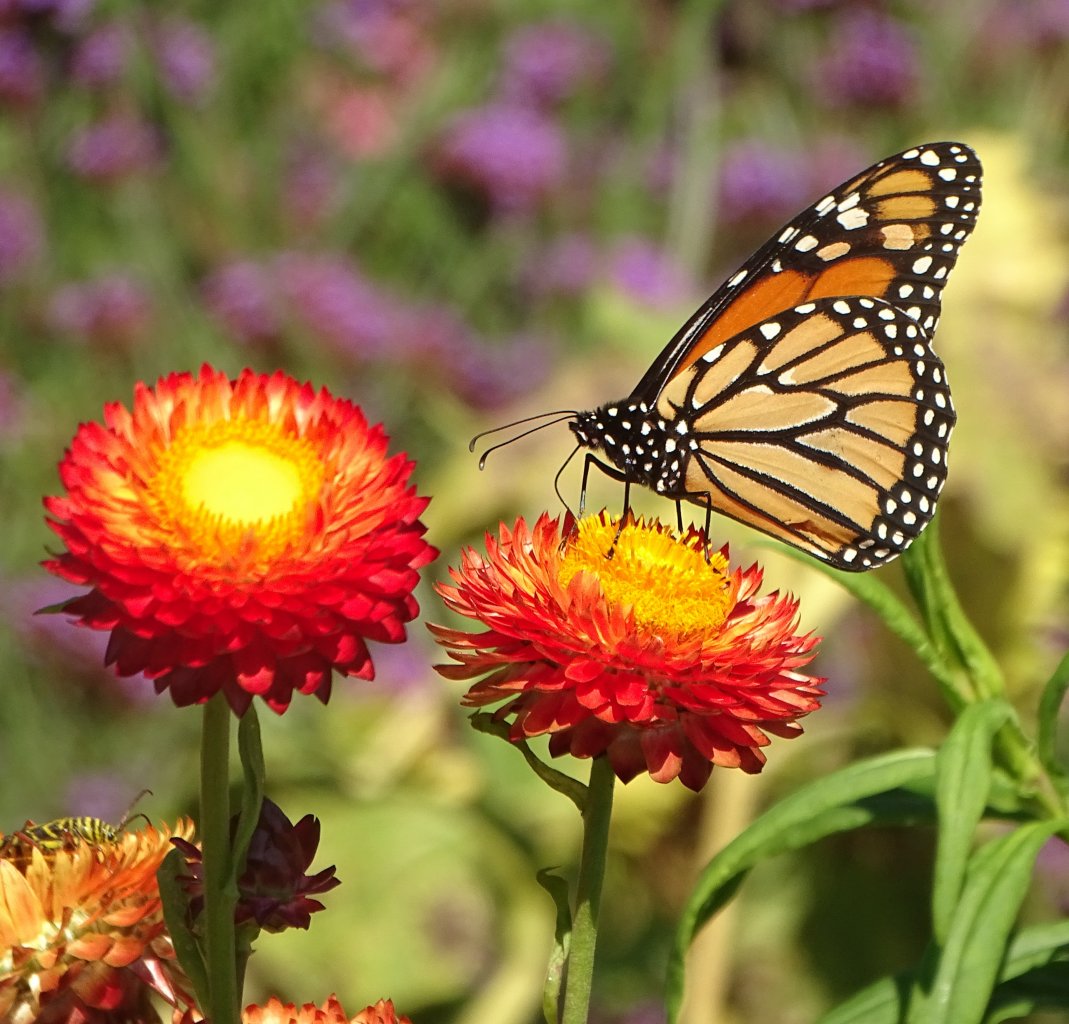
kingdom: Animalia
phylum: Arthropoda
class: Insecta
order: Lepidoptera
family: Nymphalidae
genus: Danaus
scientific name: Danaus plexippus
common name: Monarch
